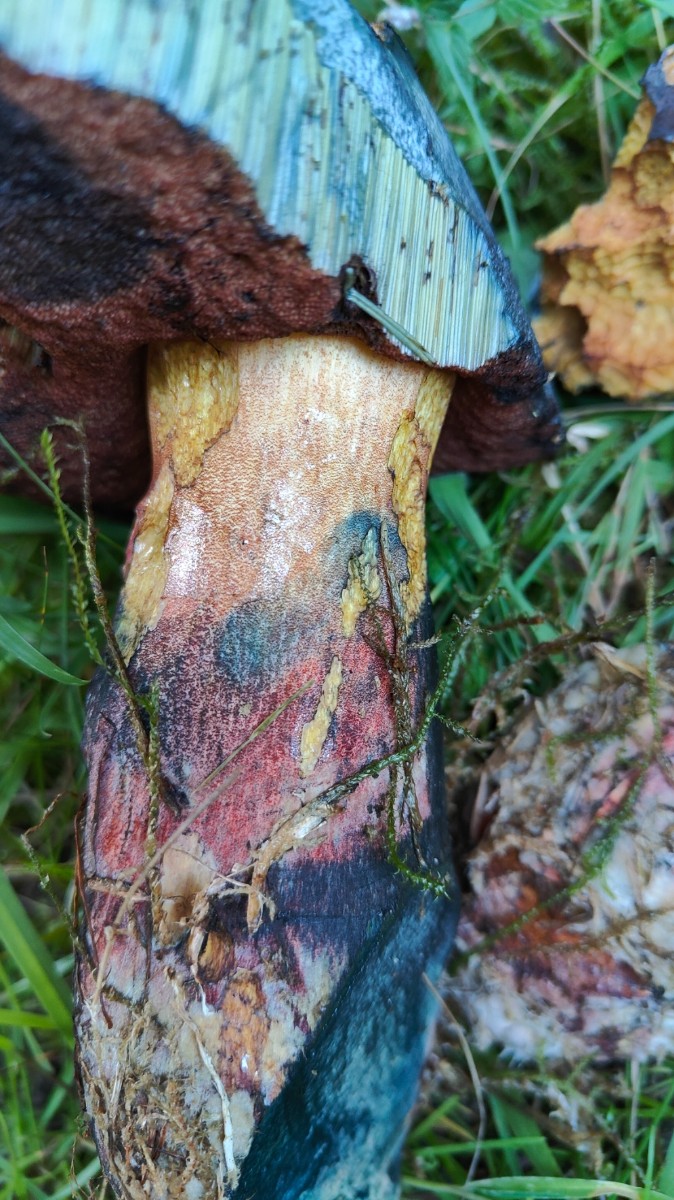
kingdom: Fungi
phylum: Basidiomycota
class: Agaricomycetes
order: Boletales
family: Boletaceae
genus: Neoboletus
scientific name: Neoboletus erythropus
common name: punktstokket indigorørhat
